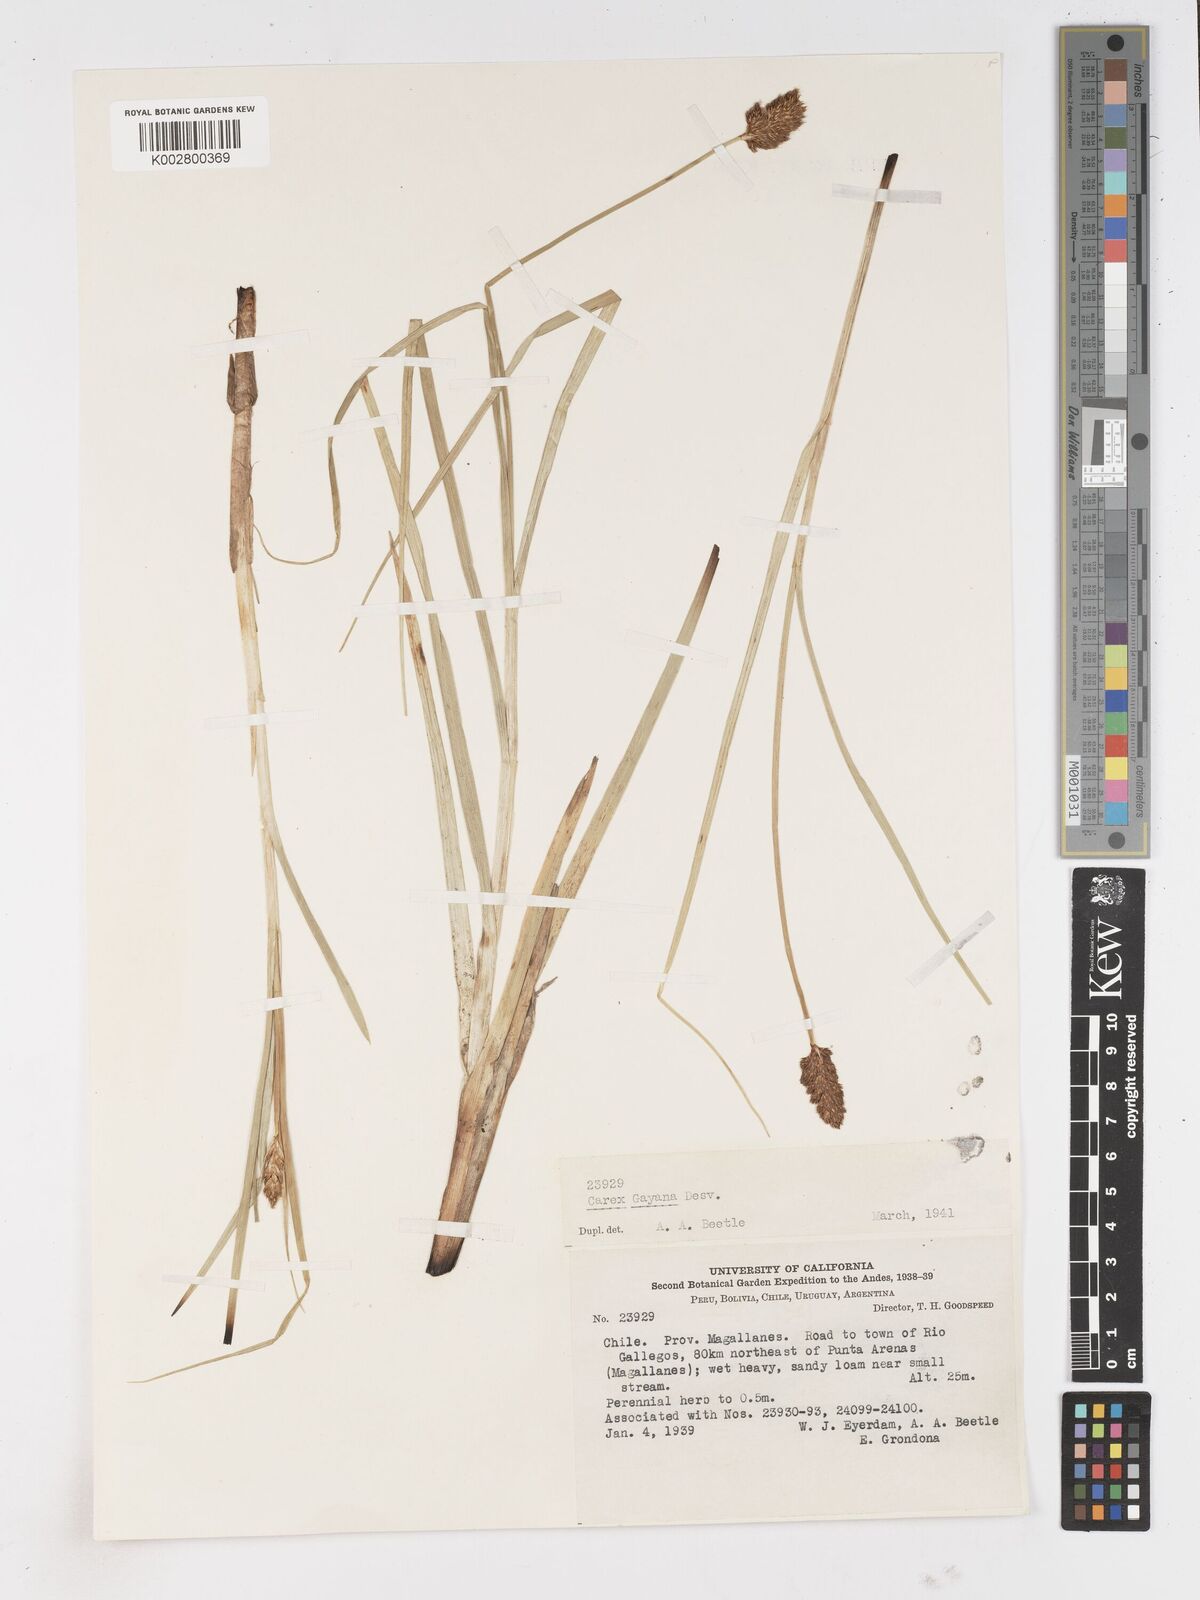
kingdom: Plantae
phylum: Tracheophyta
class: Liliopsida
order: Poales
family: Cyperaceae
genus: Carex
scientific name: Carex gayana
